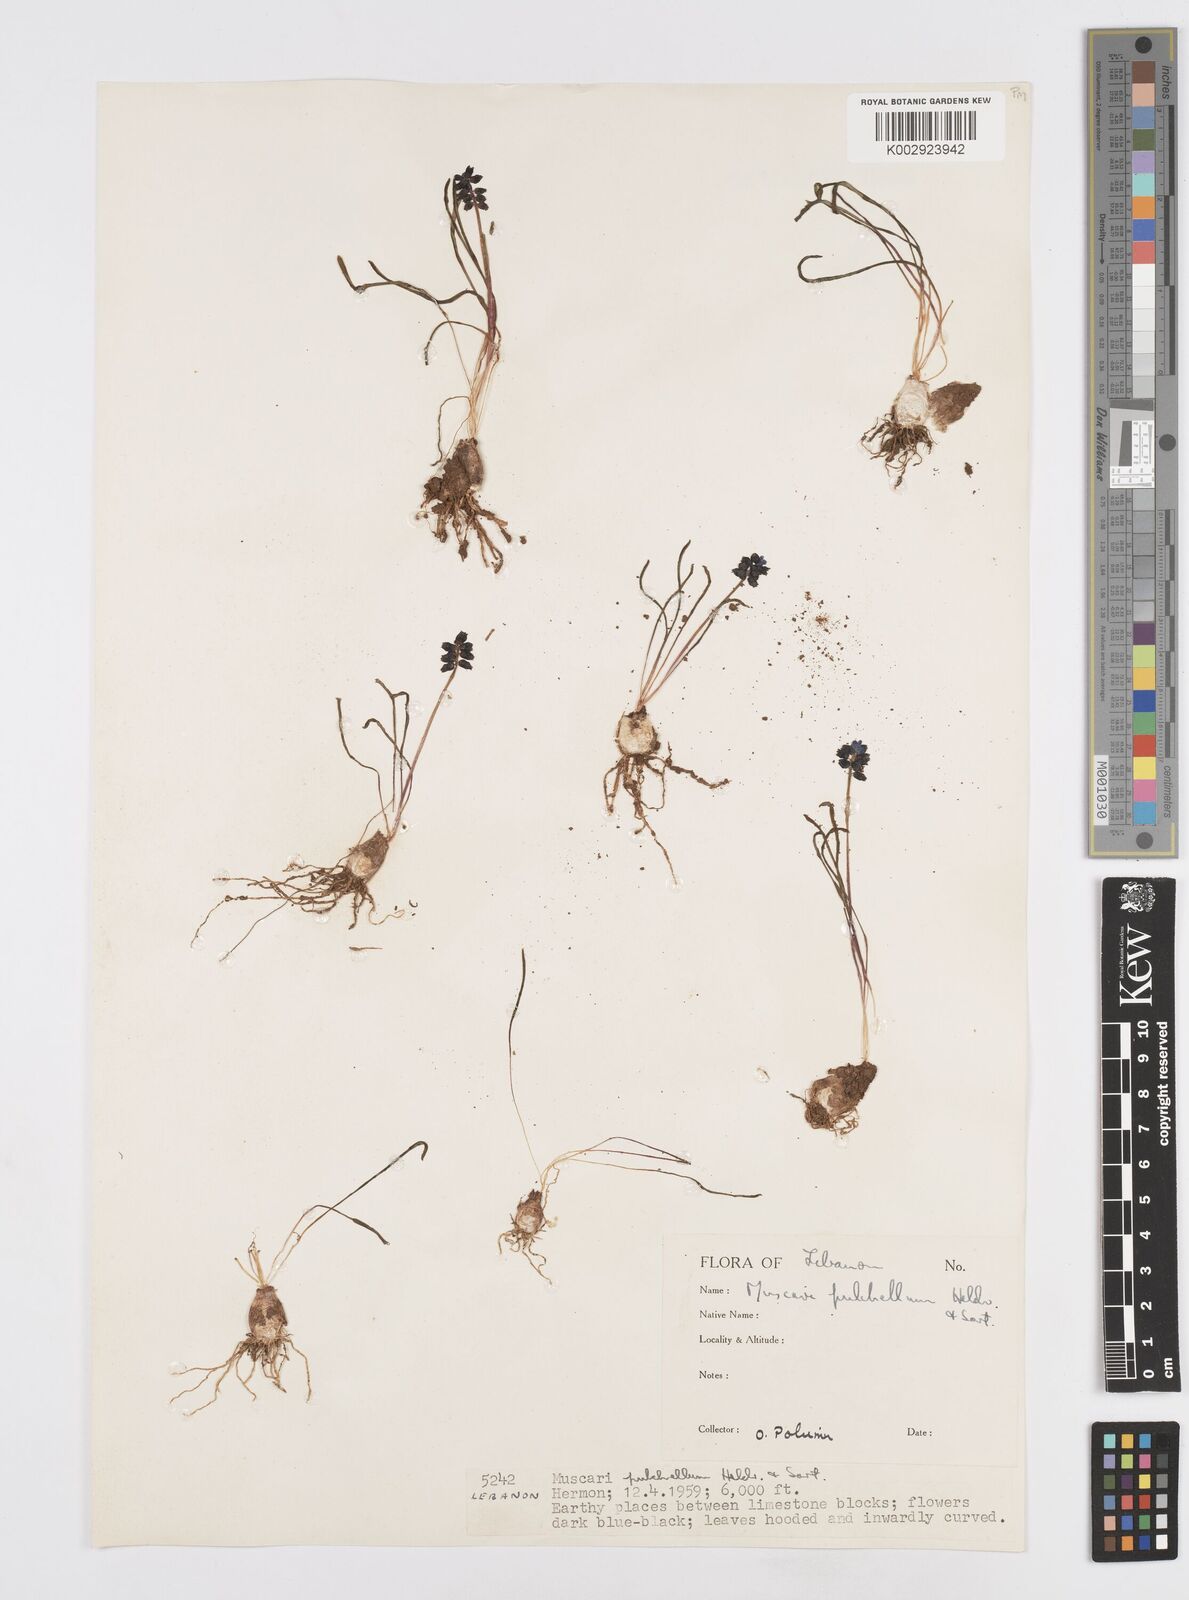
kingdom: Plantae
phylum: Tracheophyta
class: Liliopsida
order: Asparagales
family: Asparagaceae
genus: Muscari
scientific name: Muscari pulchellum
